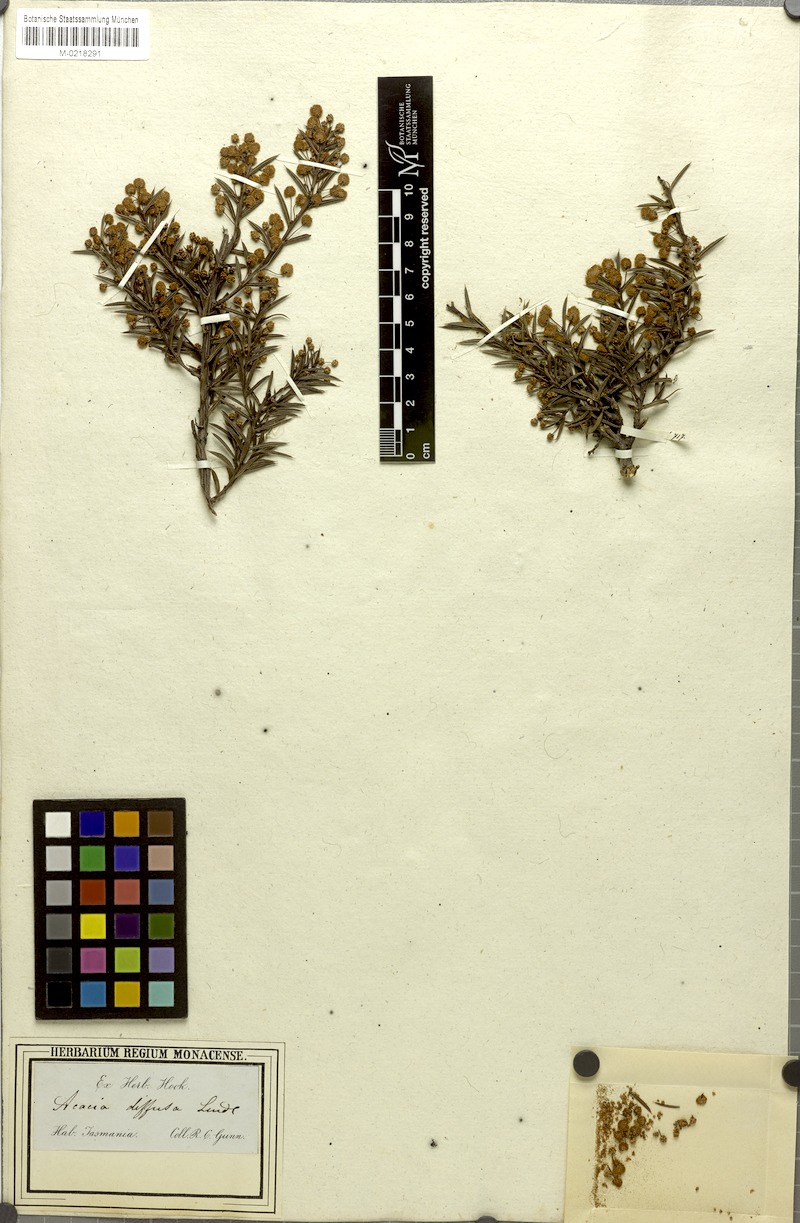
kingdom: Plantae
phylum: Tracheophyta
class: Magnoliopsida
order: Fabales
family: Fabaceae
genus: Acacia
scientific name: Acacia genistifolia
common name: Early wattle
